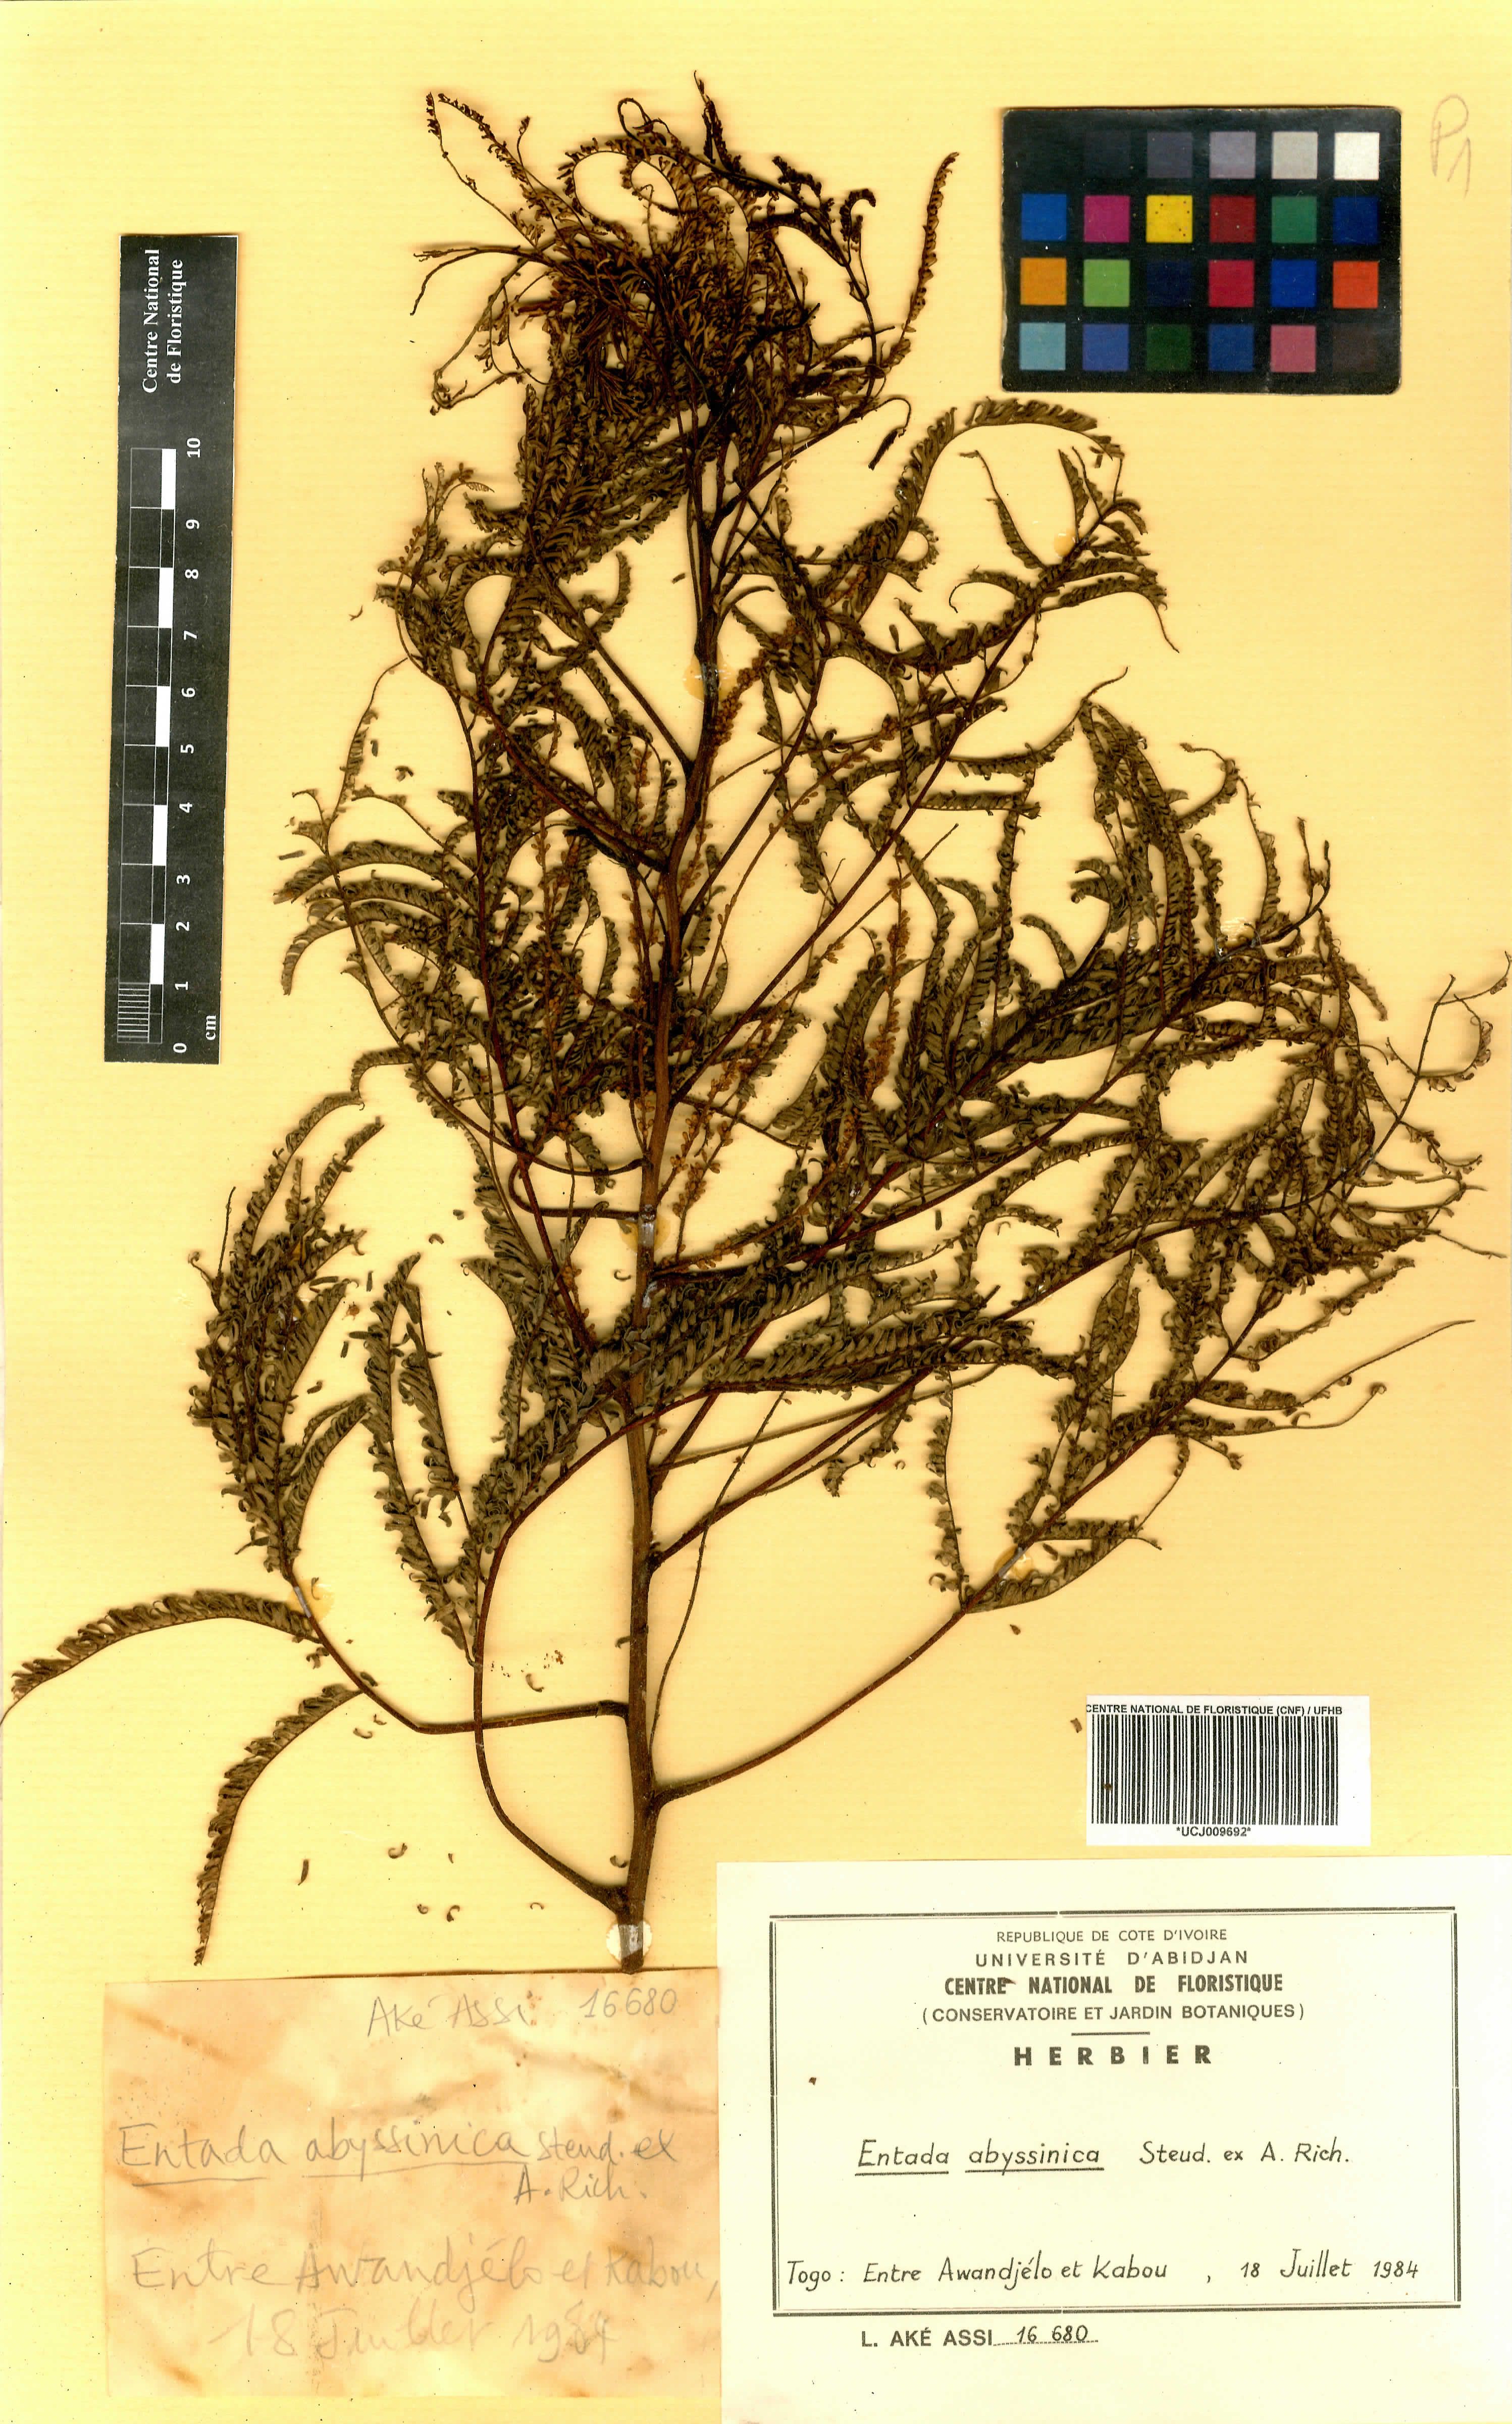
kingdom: Plantae
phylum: Tracheophyta
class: Magnoliopsida
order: Fabales
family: Fabaceae
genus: Entada
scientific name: Entada abyssinica
